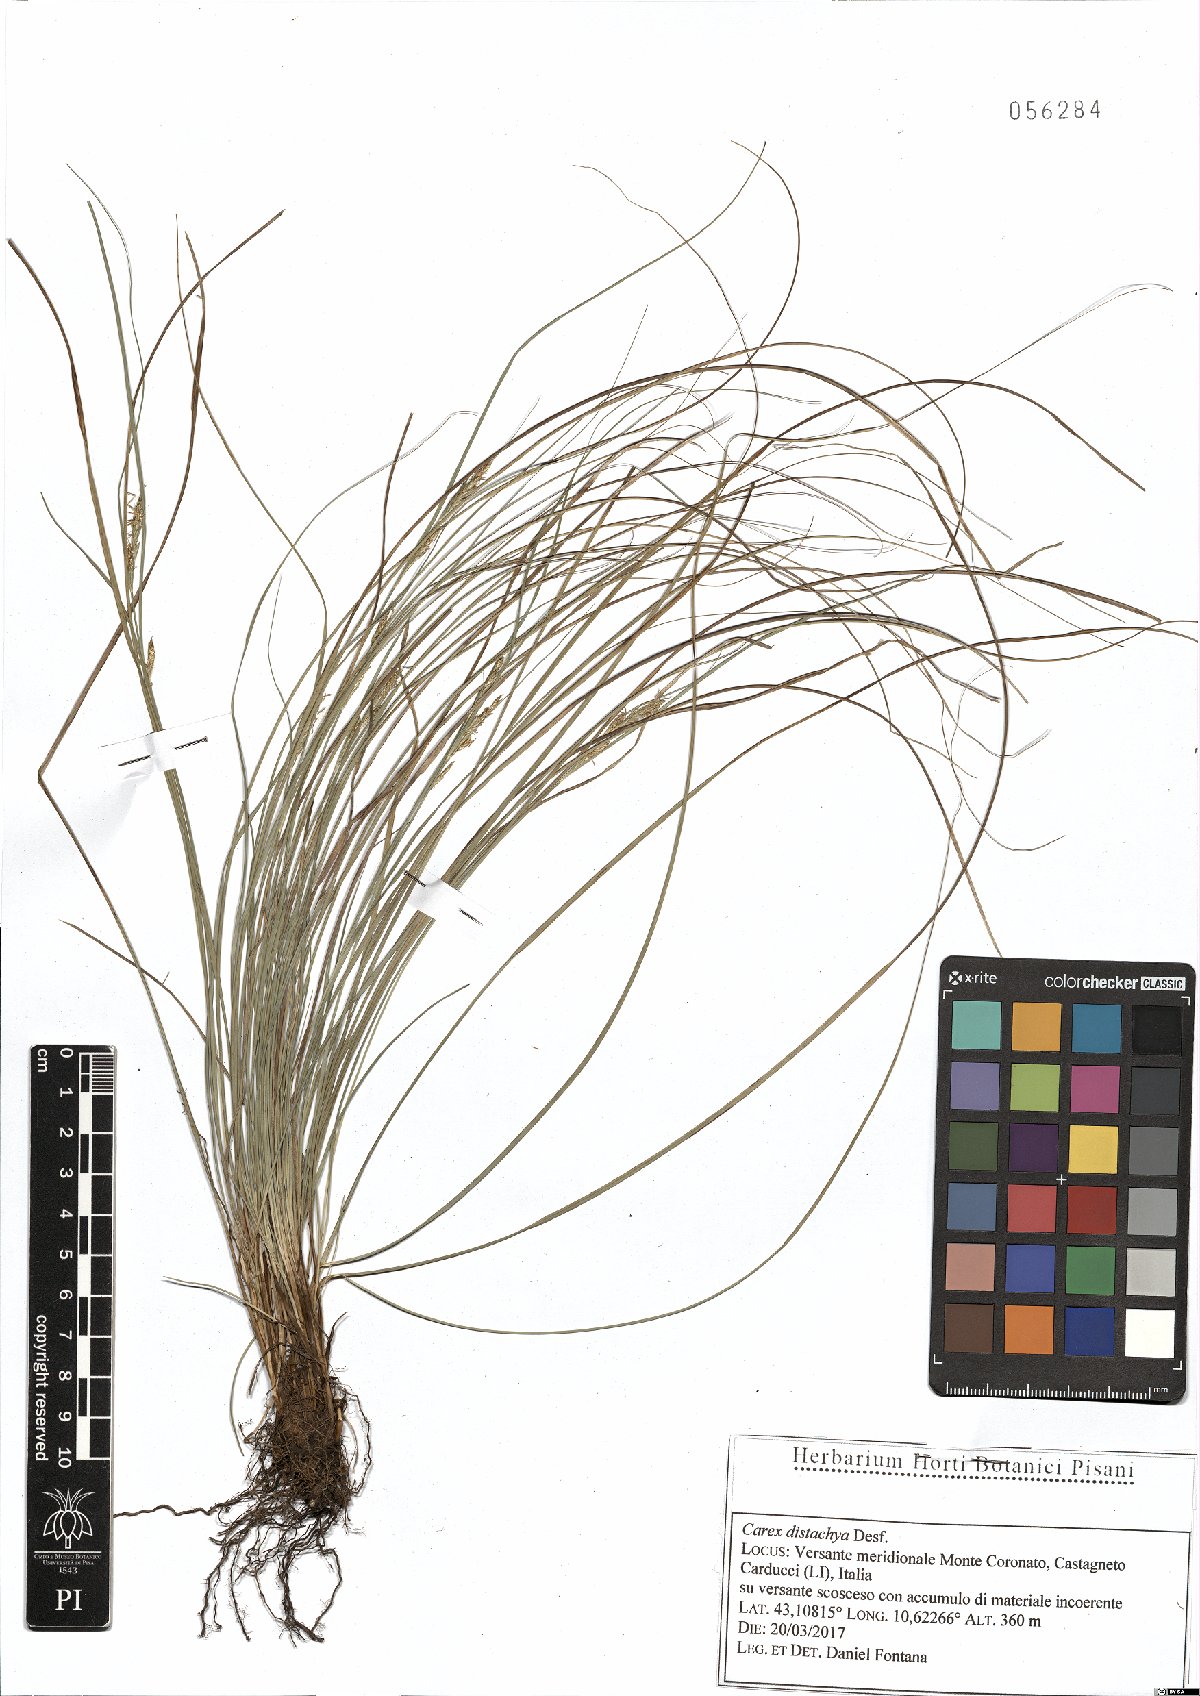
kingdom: Plantae
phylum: Tracheophyta
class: Liliopsida
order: Poales
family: Cyperaceae
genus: Carex
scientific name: Carex distachya
